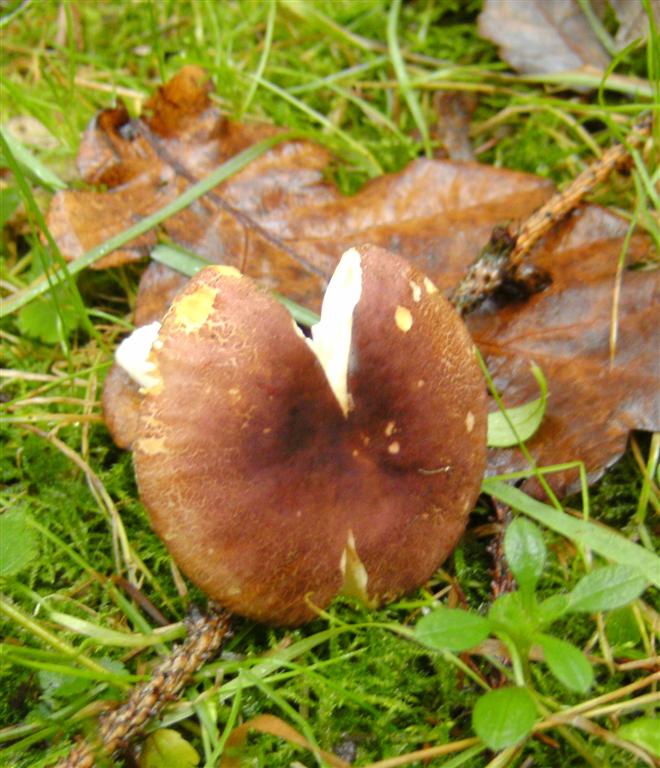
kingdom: Fungi
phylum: Basidiomycota
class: Agaricomycetes
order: Russulales
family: Russulaceae
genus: Russula
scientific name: Russula puellaris
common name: gulstokket skørhat
